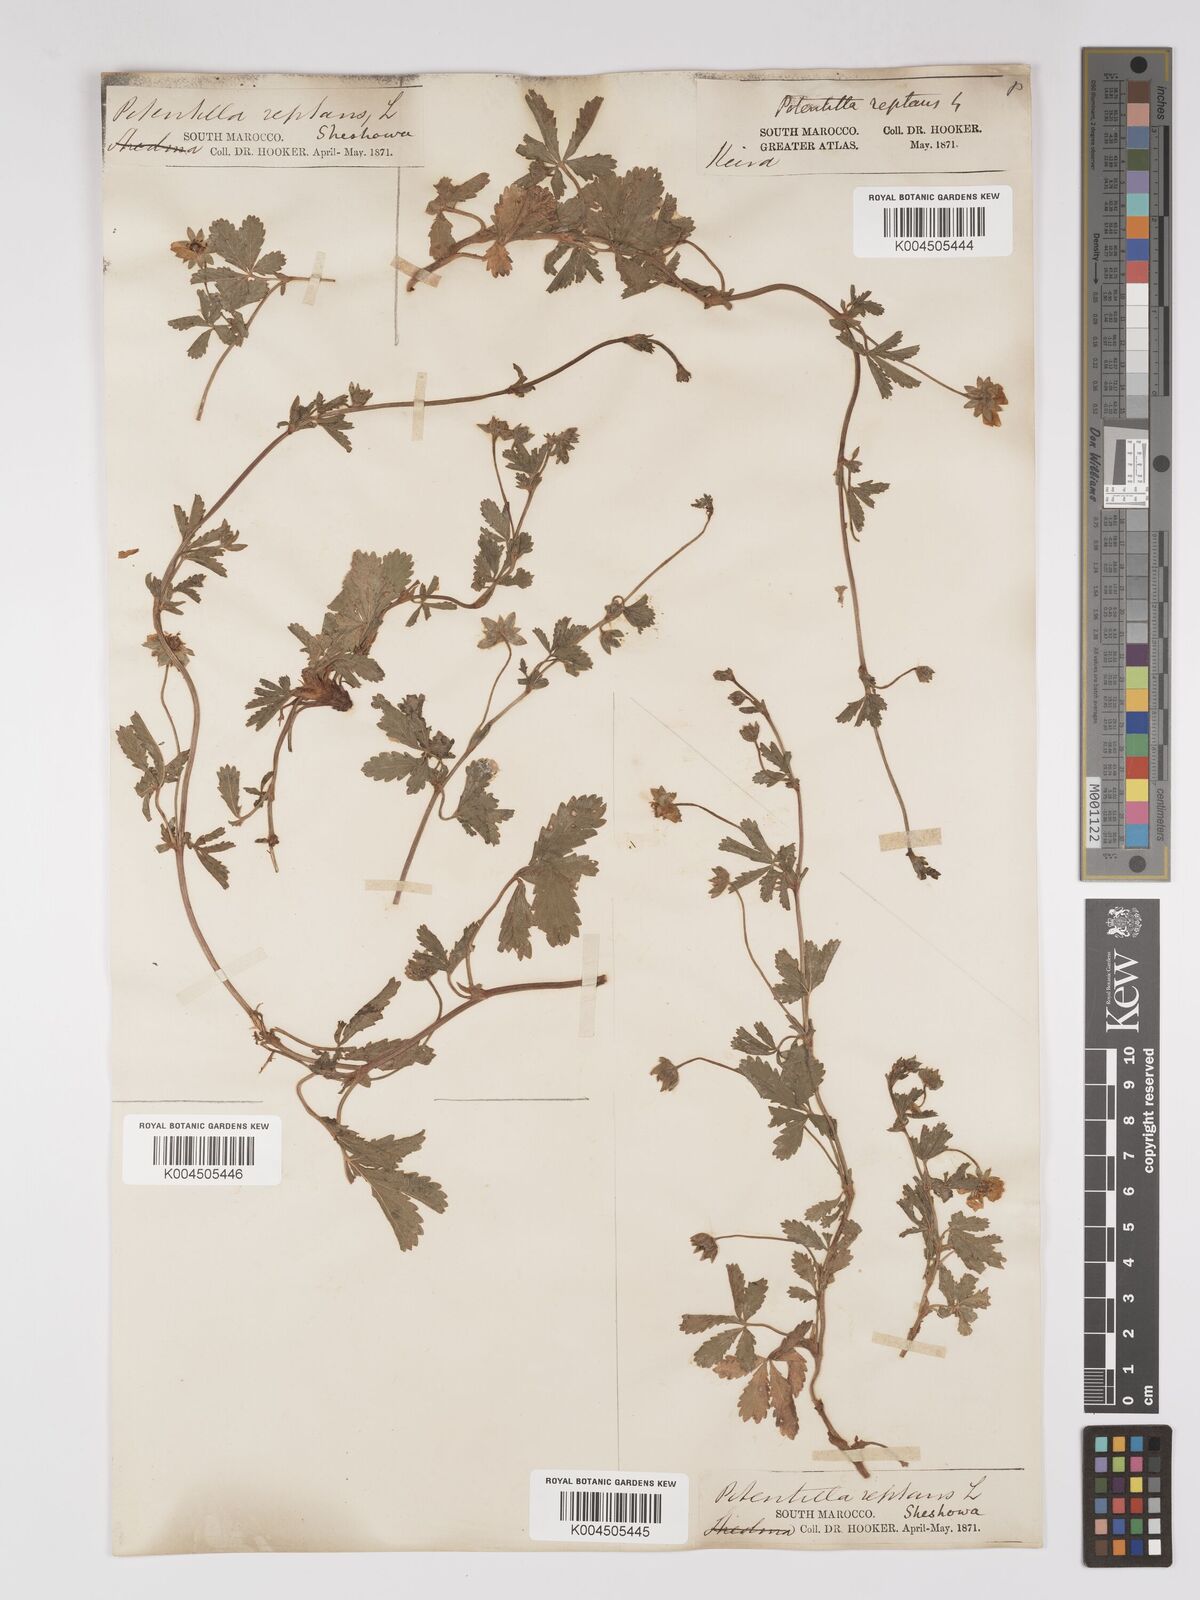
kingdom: Plantae
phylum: Tracheophyta
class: Magnoliopsida
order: Rosales
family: Rosaceae
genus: Potentilla
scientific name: Potentilla reptans
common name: Creeping cinquefoil
